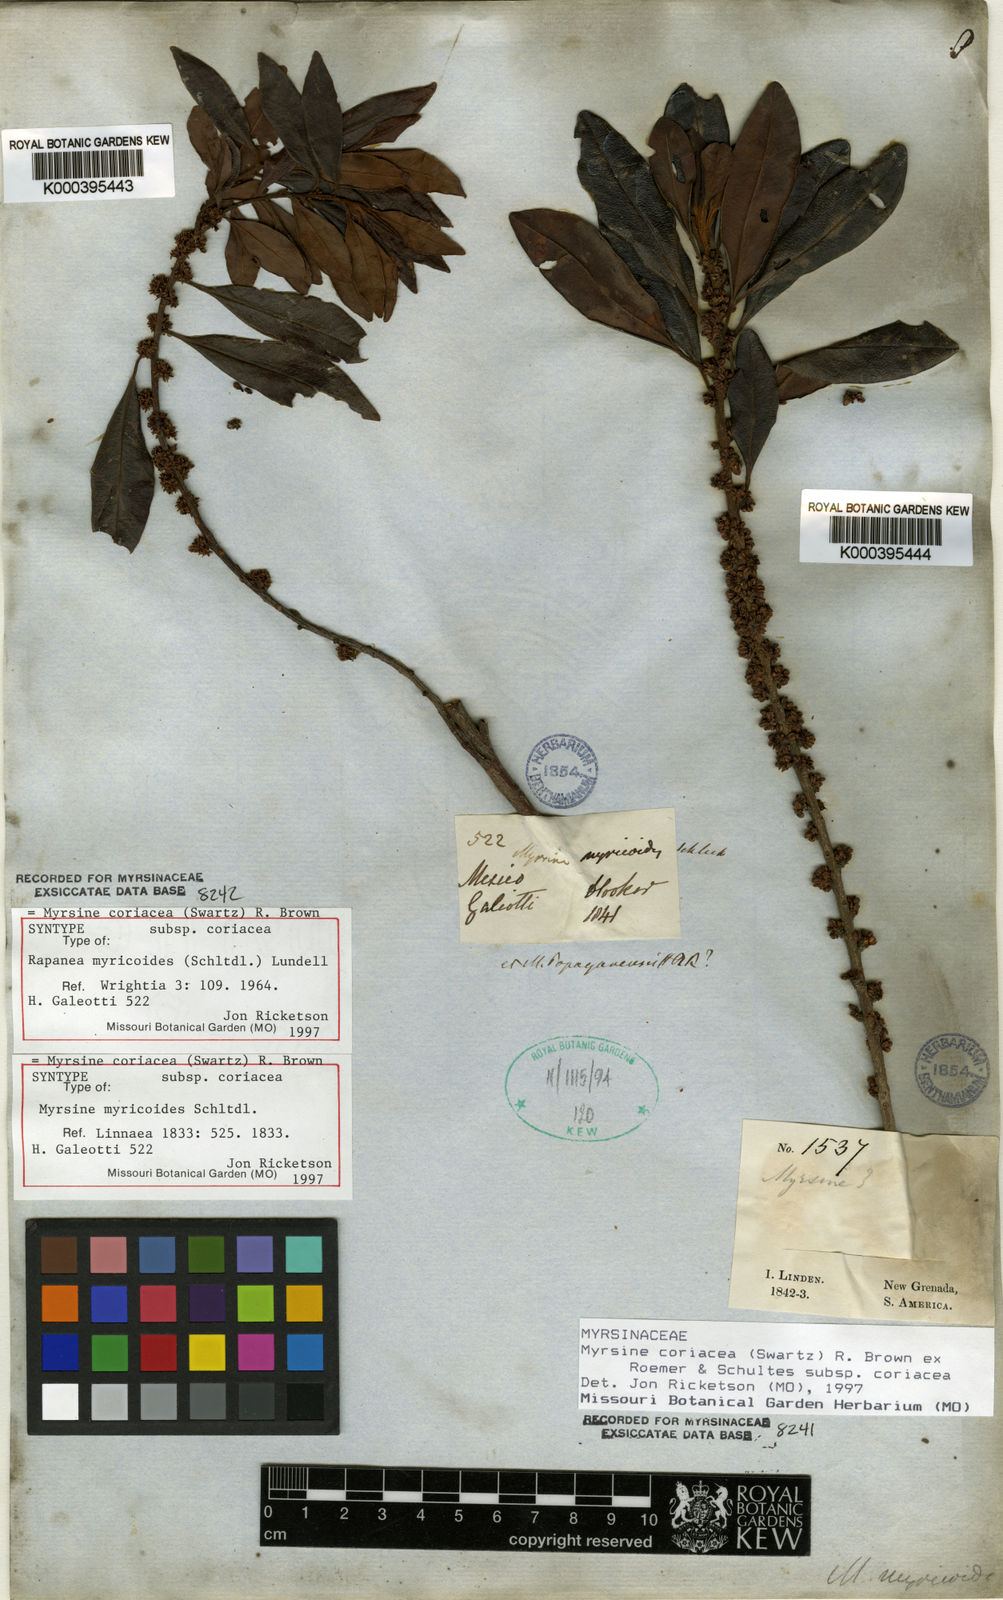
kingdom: Plantae
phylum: Tracheophyta
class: Magnoliopsida
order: Ericales
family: Primulaceae
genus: Myrsine
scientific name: Myrsine
